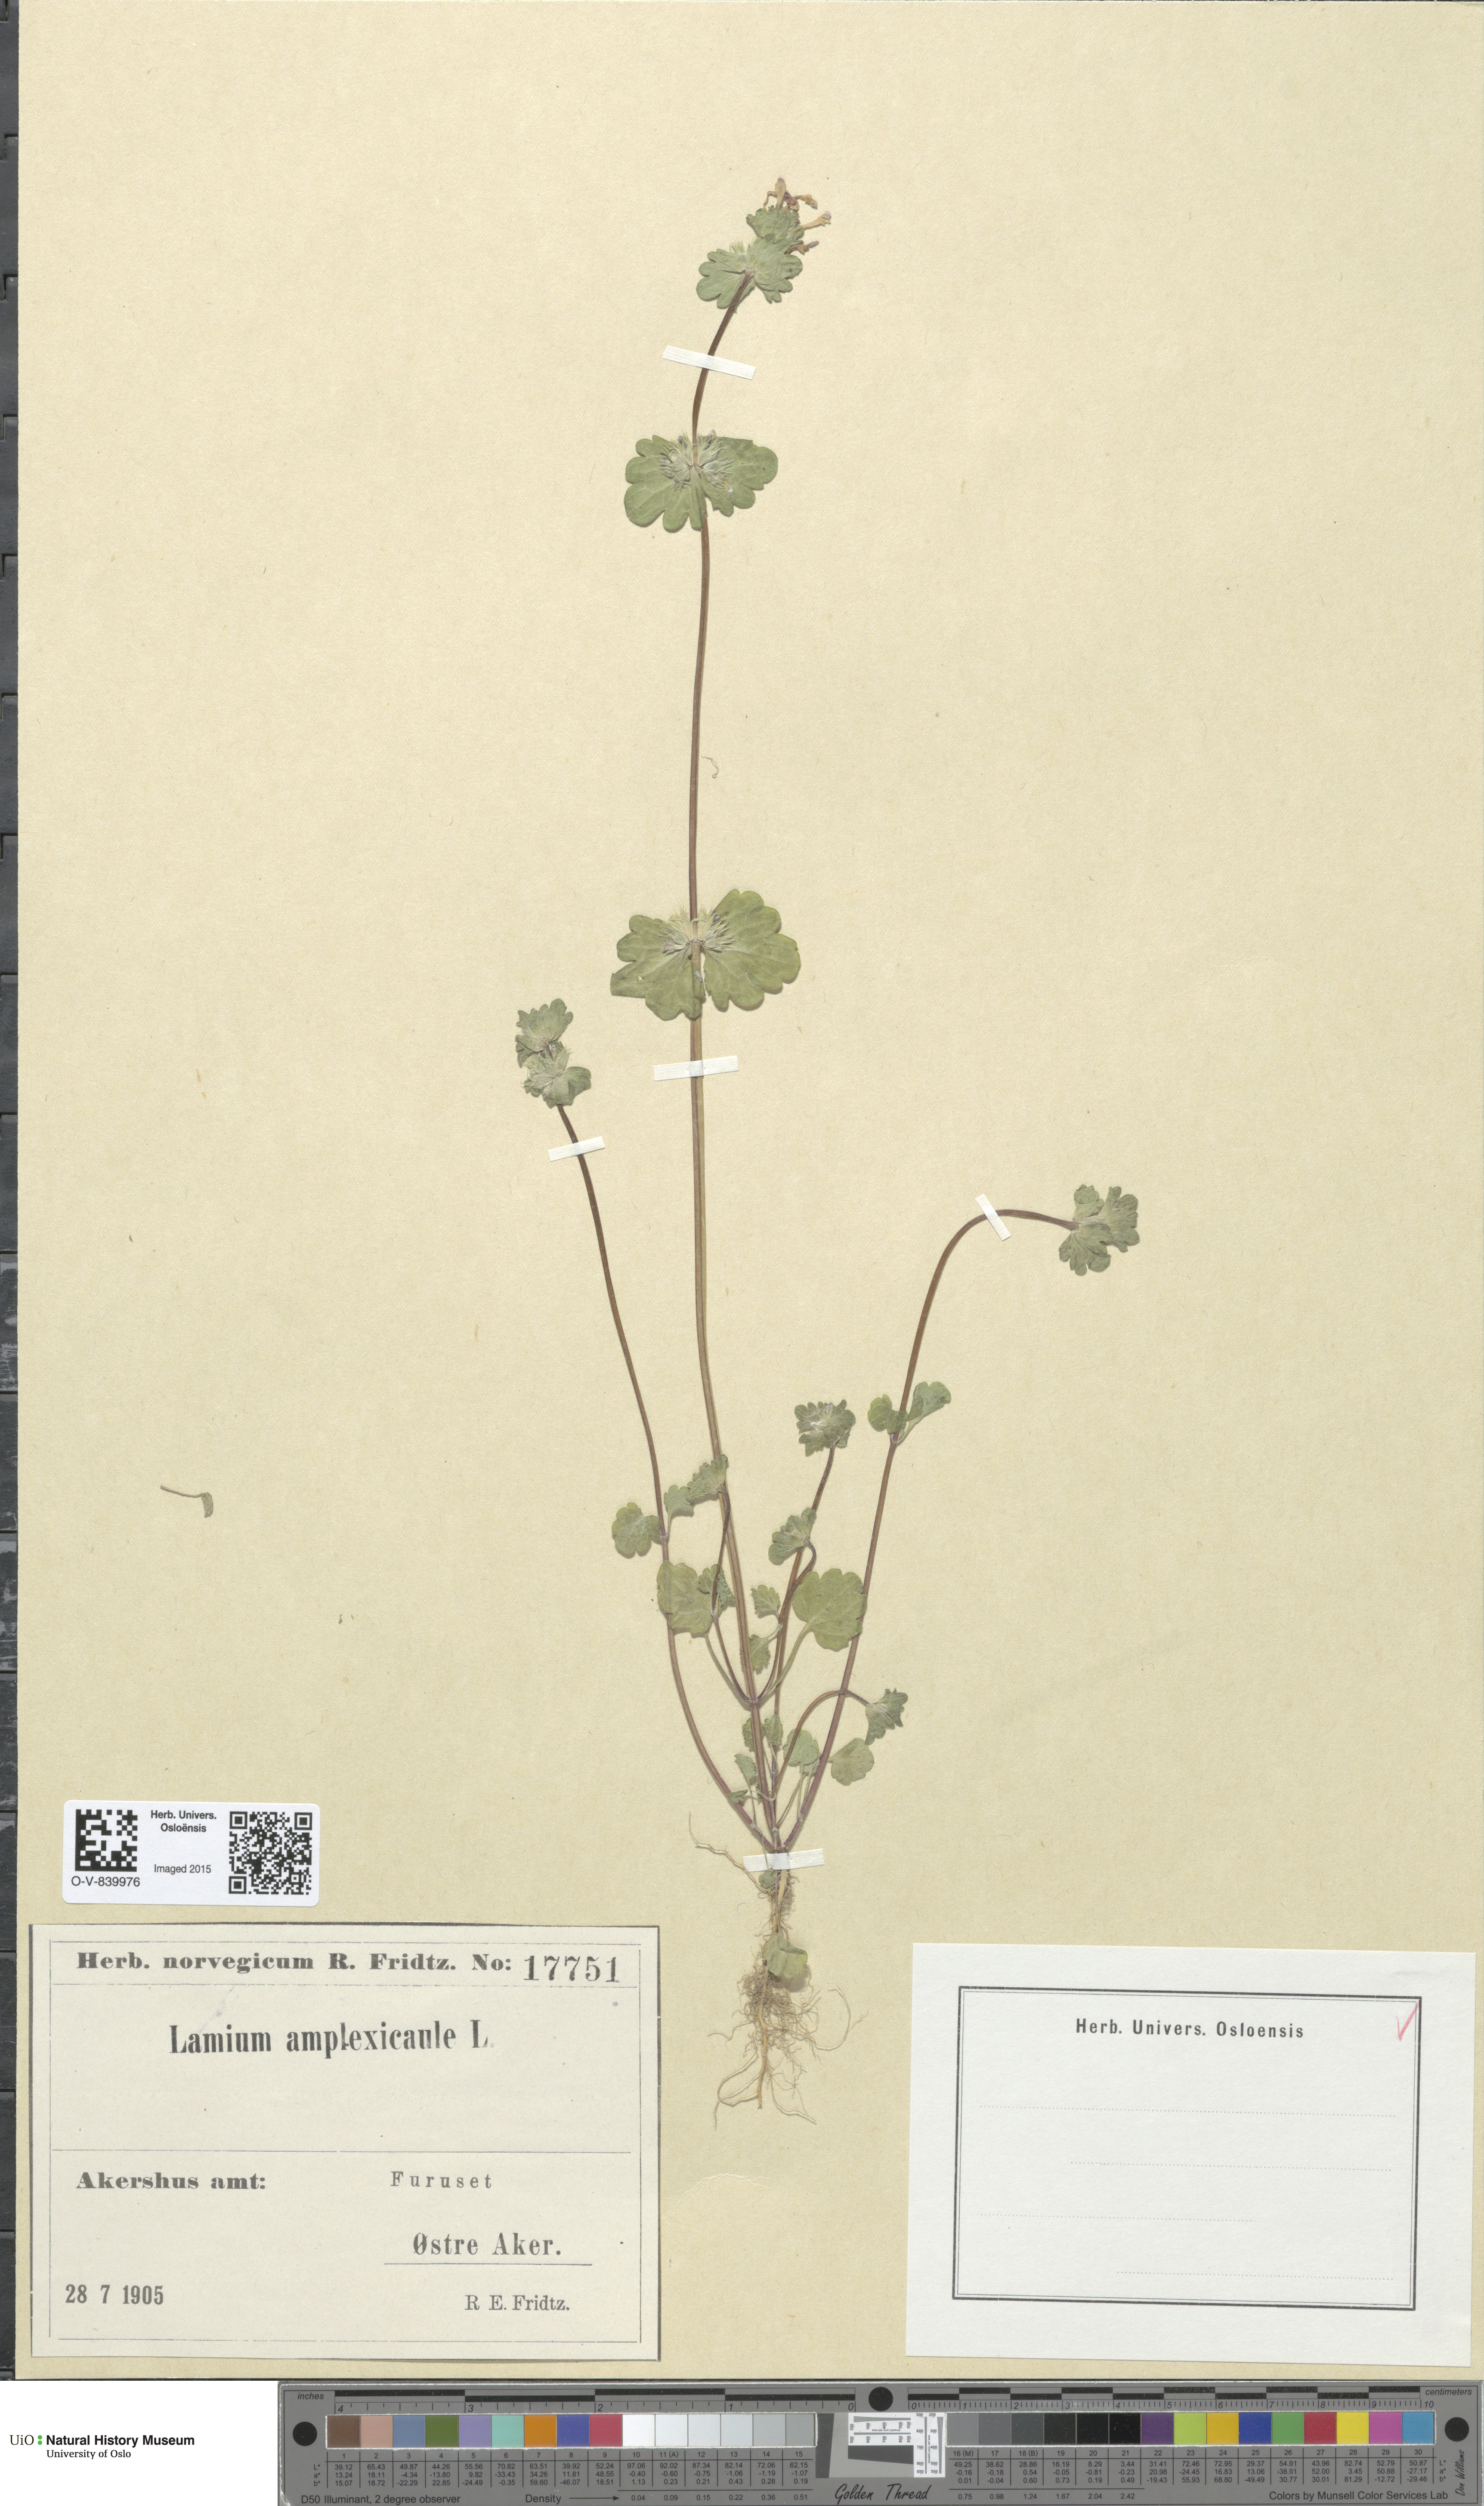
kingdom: Plantae
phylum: Tracheophyta
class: Magnoliopsida
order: Lamiales
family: Lamiaceae
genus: Lamium
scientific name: Lamium amplexicaule
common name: Henbit dead-nettle
